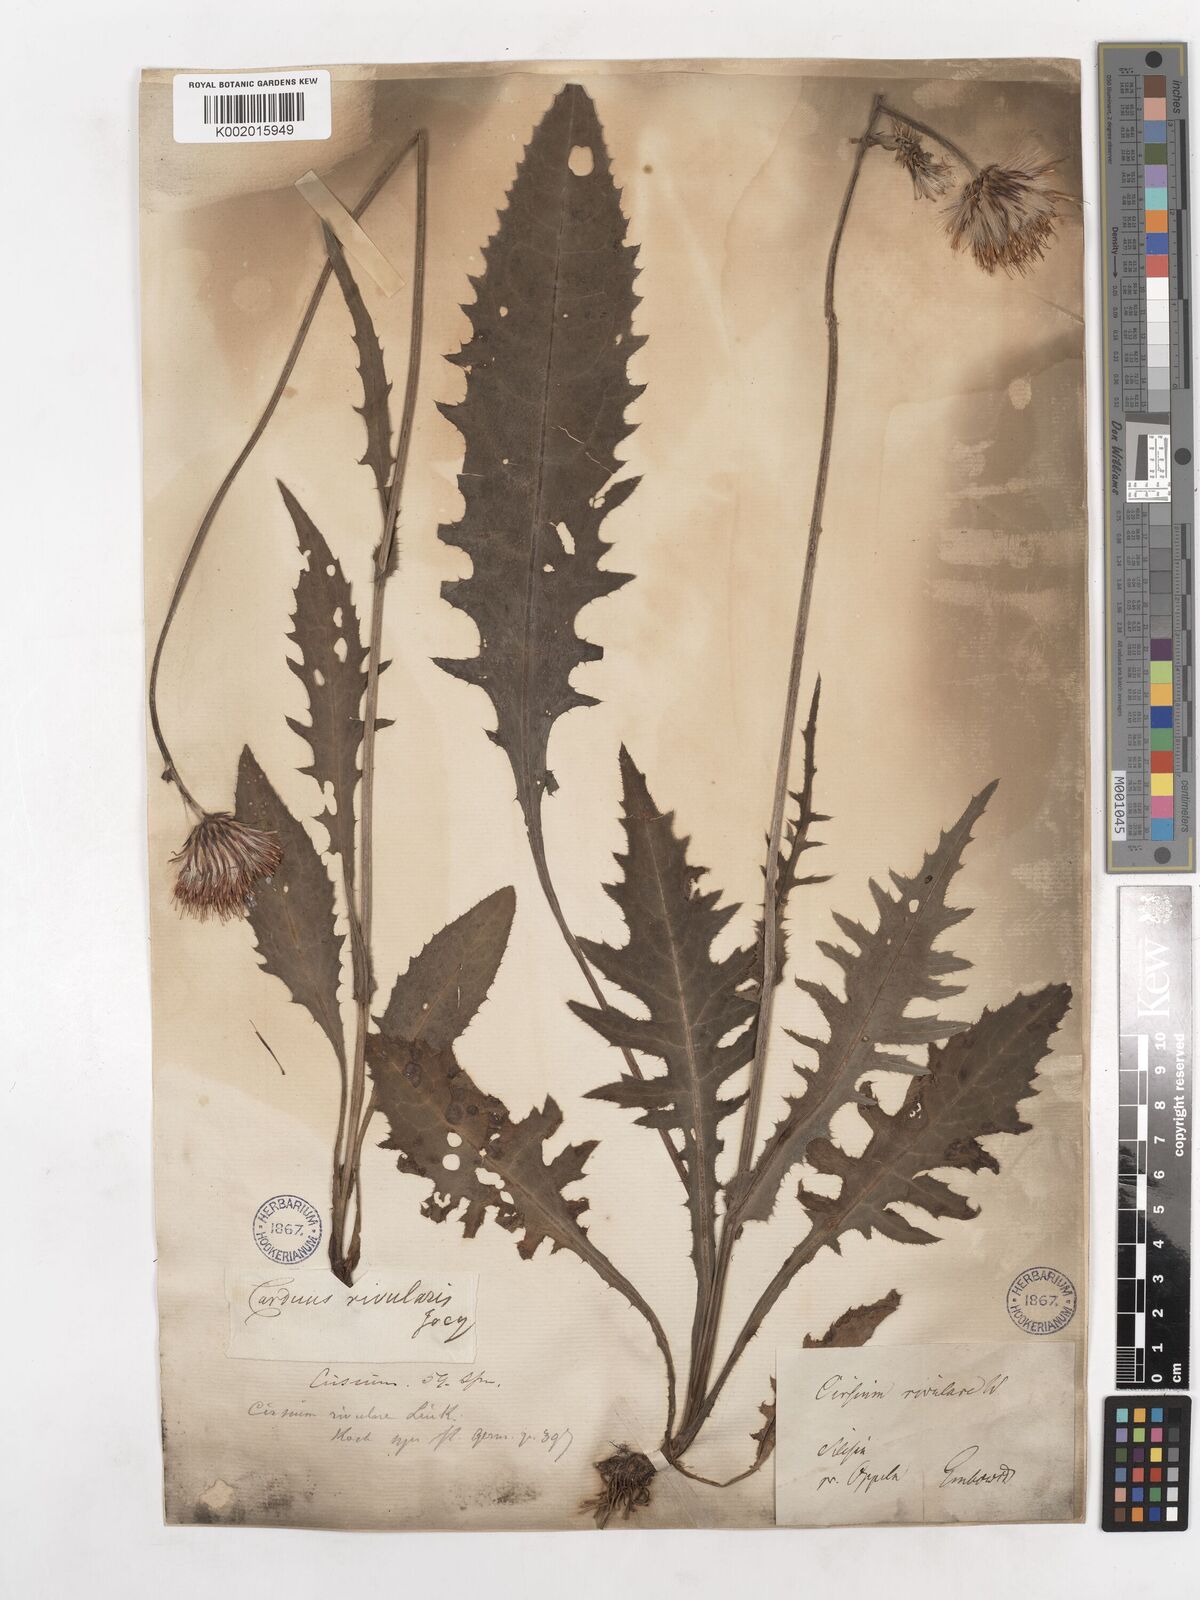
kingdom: Plantae
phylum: Tracheophyta
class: Magnoliopsida
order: Asterales
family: Asteraceae
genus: Cirsium
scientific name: Cirsium rivulare
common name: Brook thistle
